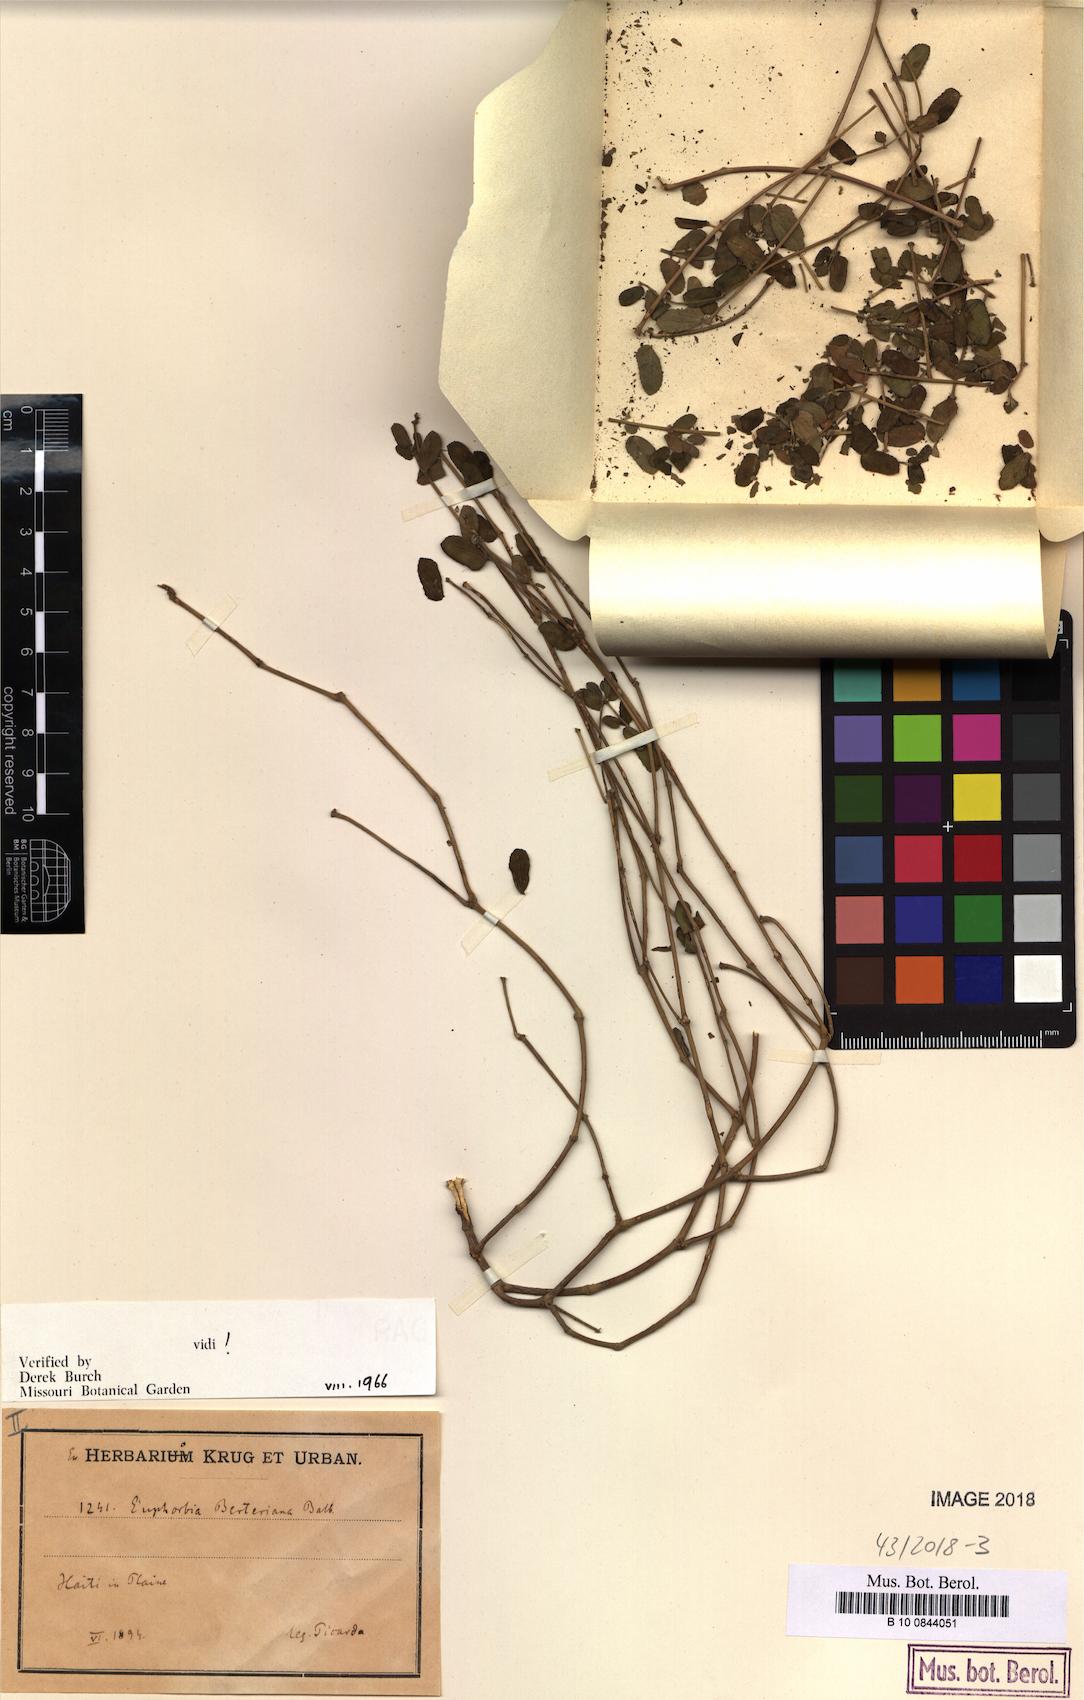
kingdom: Plantae
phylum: Tracheophyta
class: Magnoliopsida
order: Malpighiales
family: Euphorbiaceae
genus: Euphorbia
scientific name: Euphorbia berteroana
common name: Bertero's sandmat
